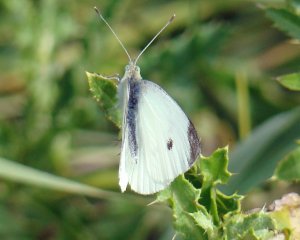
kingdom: Animalia
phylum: Arthropoda
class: Insecta
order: Lepidoptera
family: Pieridae
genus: Pieris
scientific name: Pieris rapae
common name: Cabbage White
